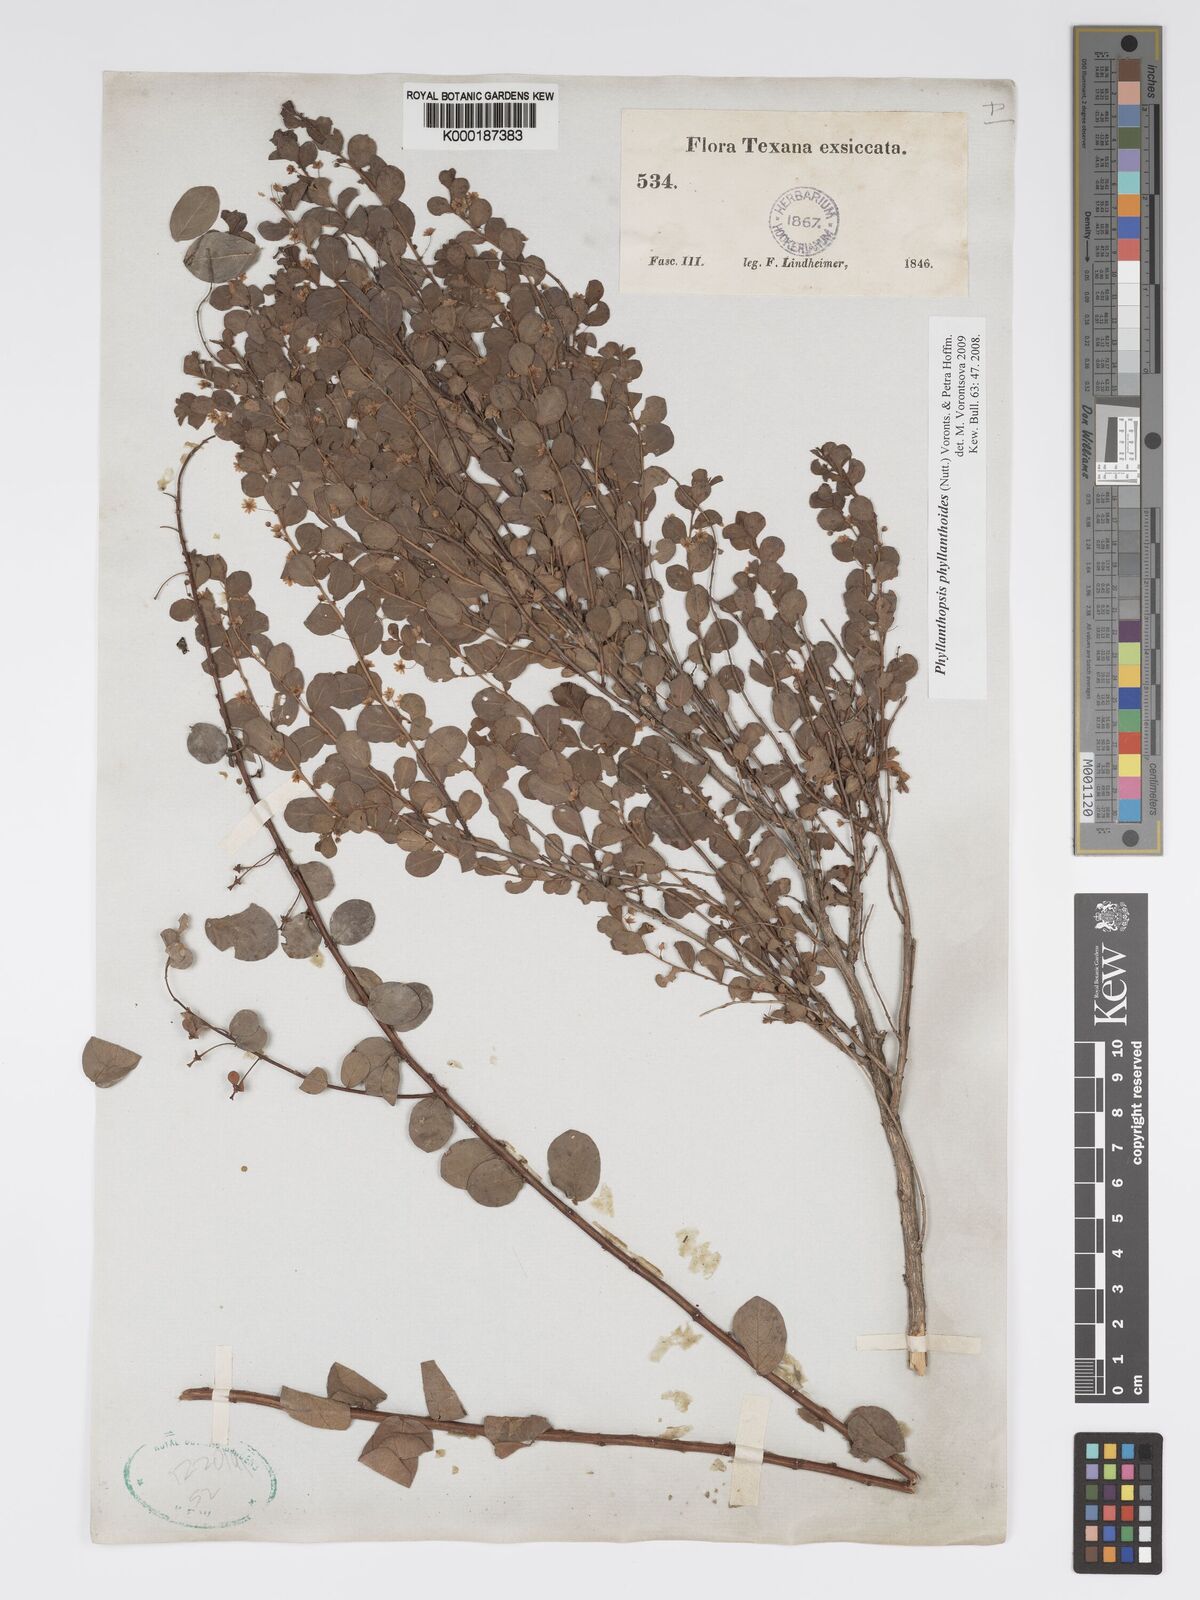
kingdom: Plantae
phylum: Tracheophyta
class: Magnoliopsida
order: Malpighiales
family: Phyllanthaceae
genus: Andrachne
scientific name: Andrachne
